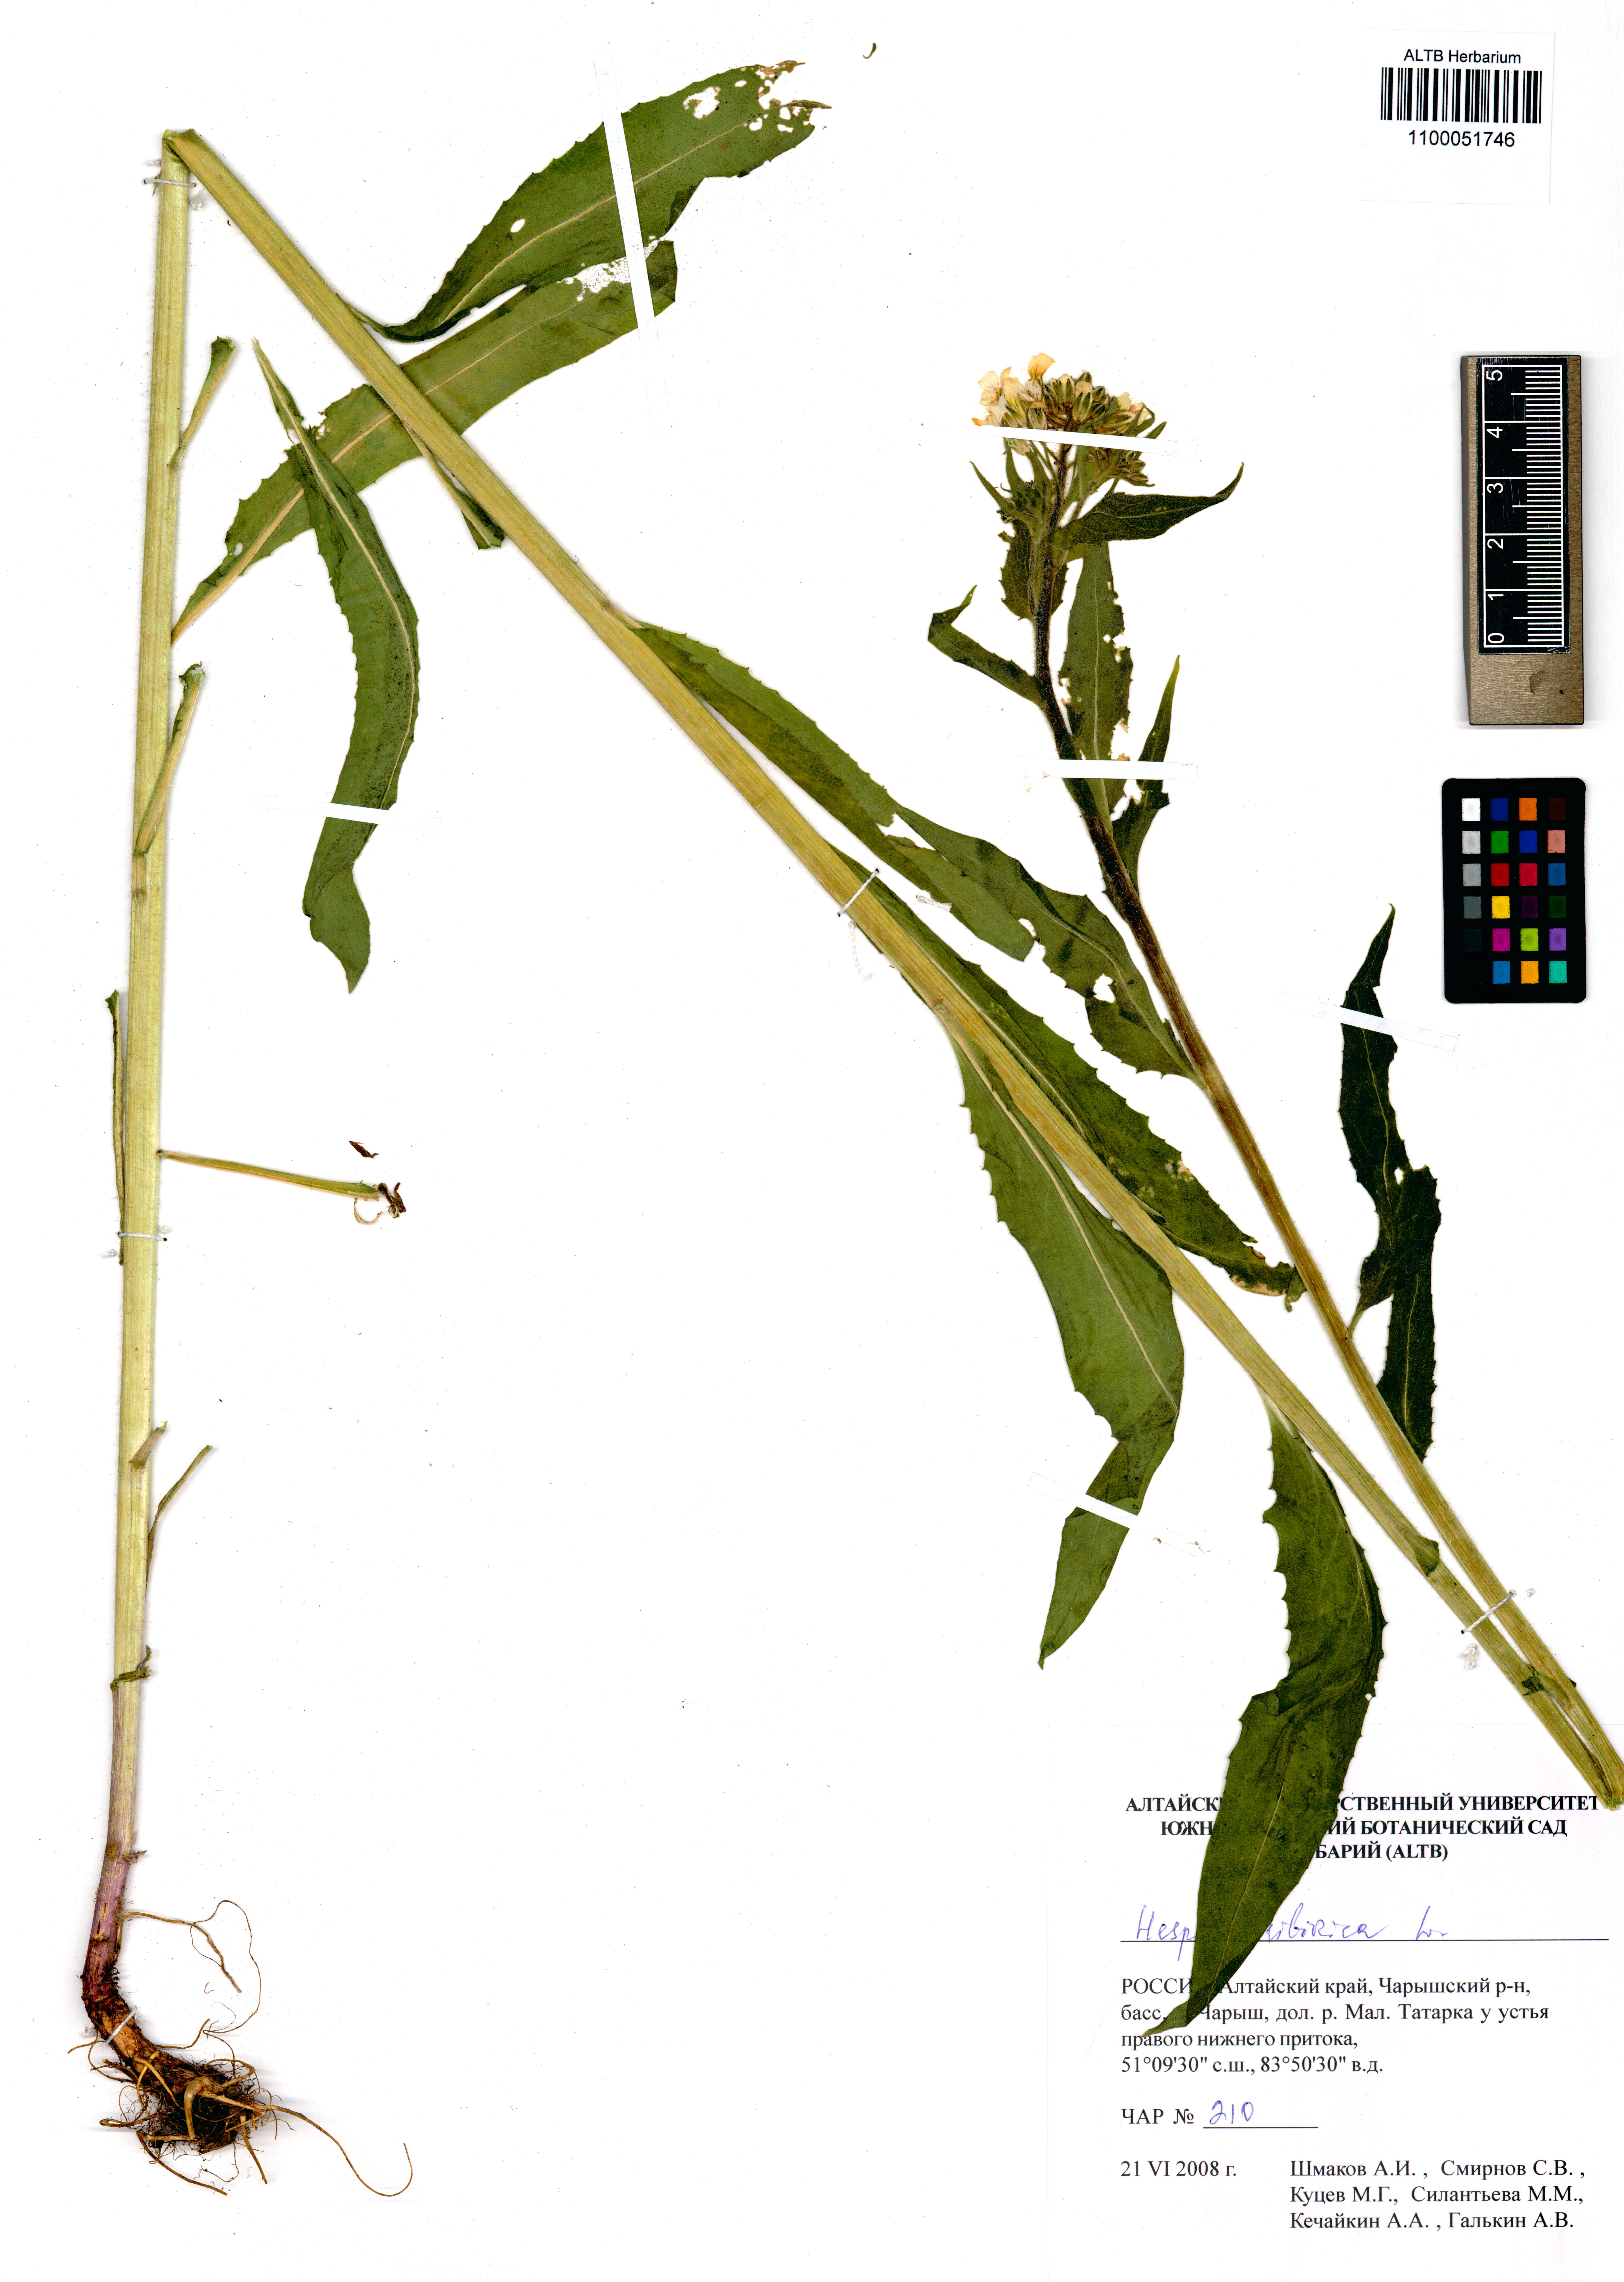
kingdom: Plantae
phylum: Tracheophyta
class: Magnoliopsida
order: Brassicales
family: Brassicaceae
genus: Hesperis
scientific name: Hesperis sibirica
